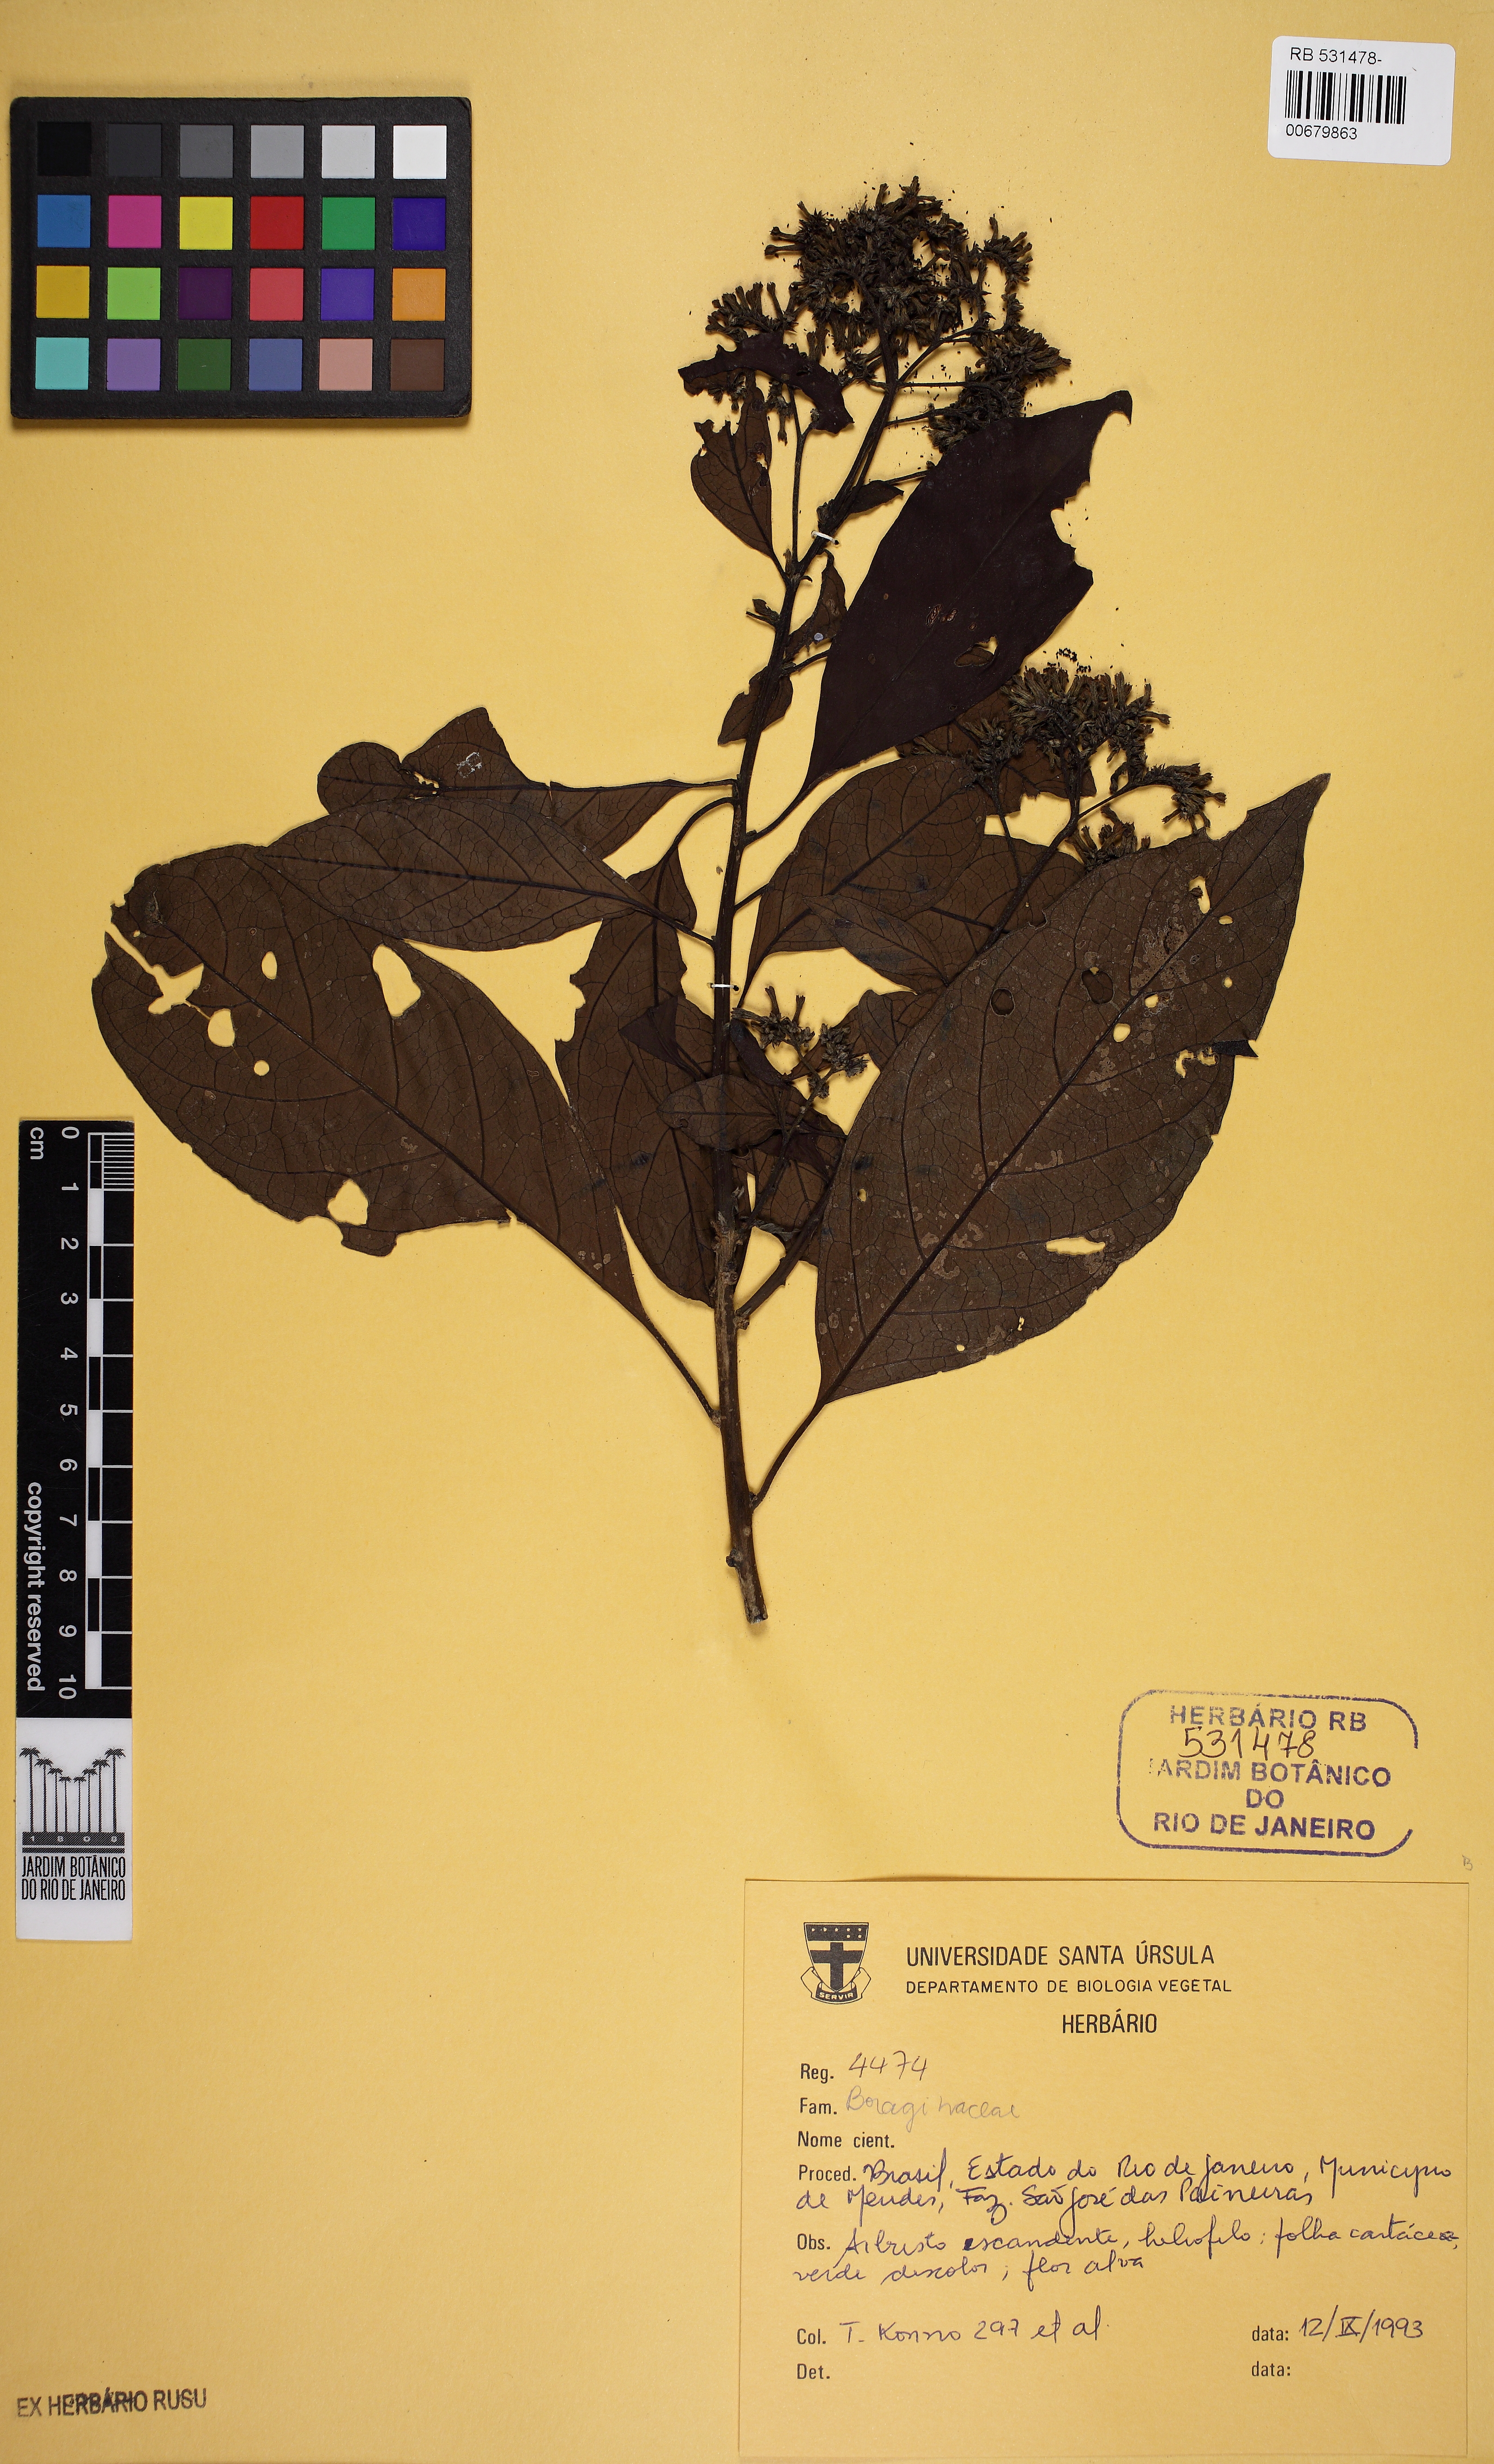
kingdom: Plantae
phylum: Tracheophyta
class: Magnoliopsida
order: Boraginales
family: Heliotropiaceae
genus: Heliotropium
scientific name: Heliotropium verdcourtii
